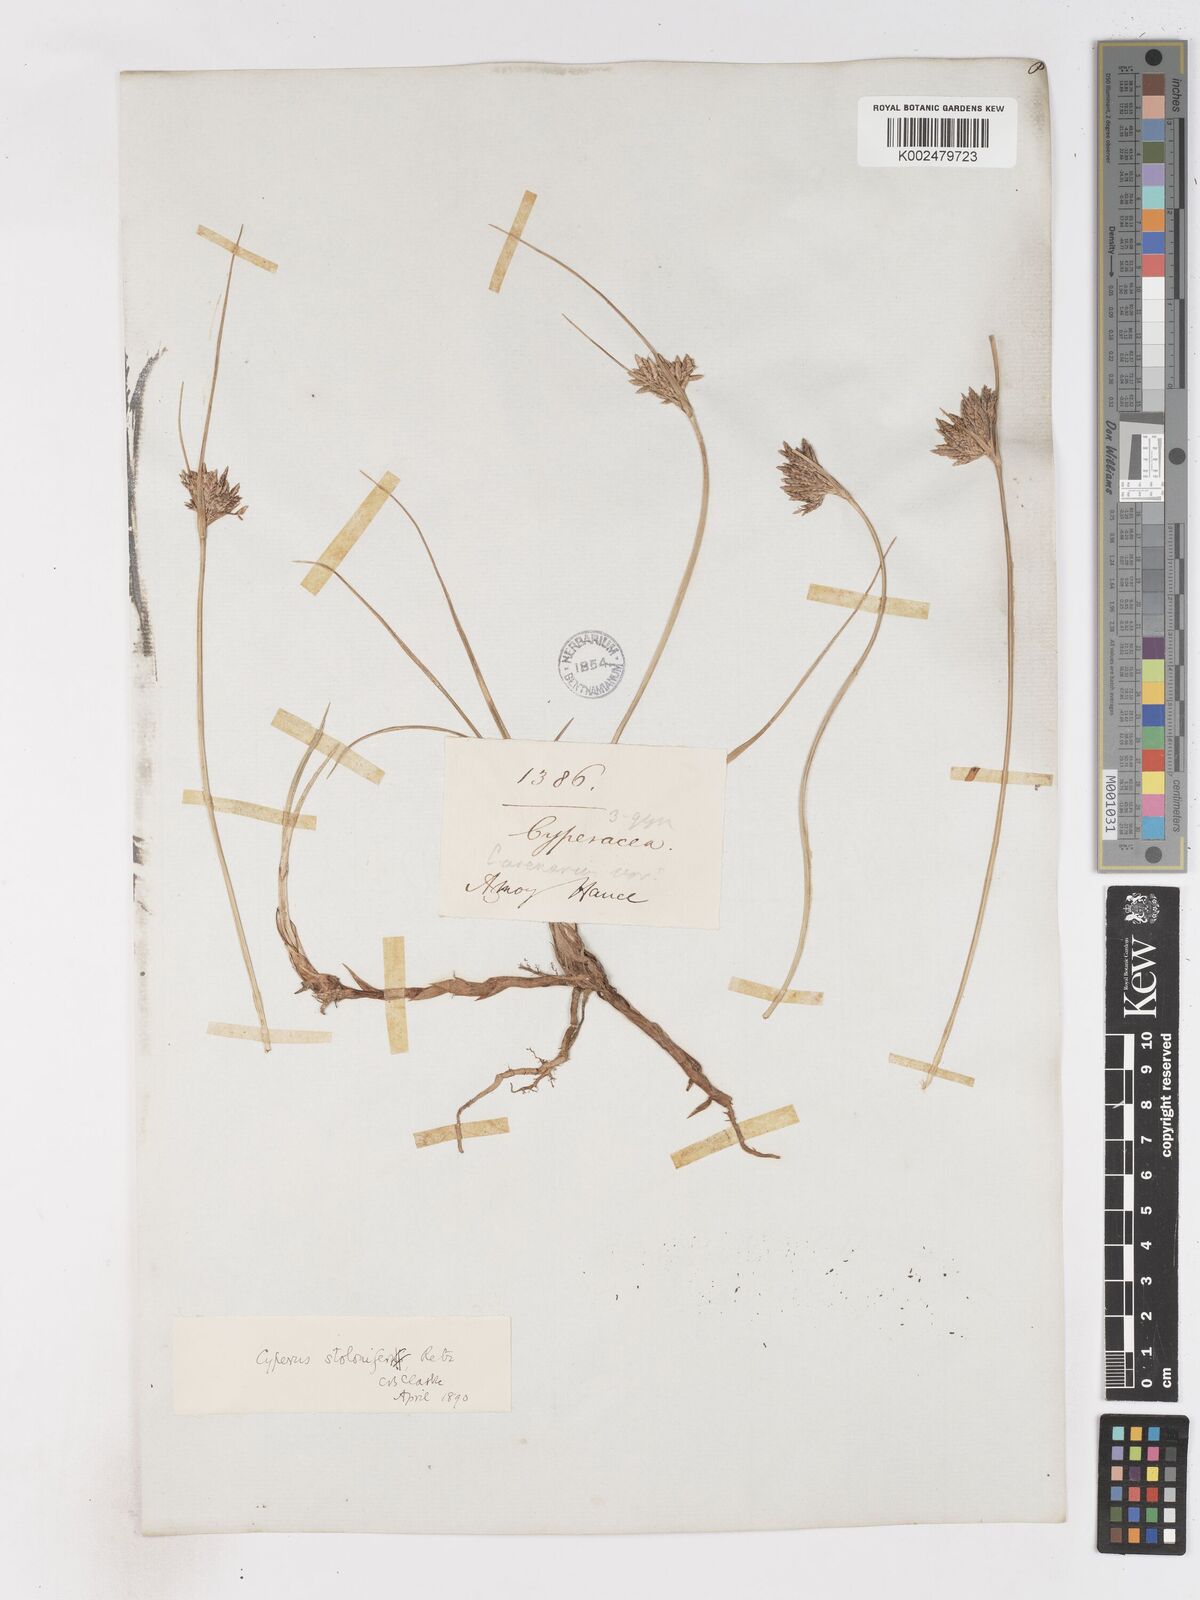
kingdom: Plantae
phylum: Tracheophyta
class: Liliopsida
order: Poales
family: Cyperaceae
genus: Cyperus
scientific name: Cyperus stolonifer
